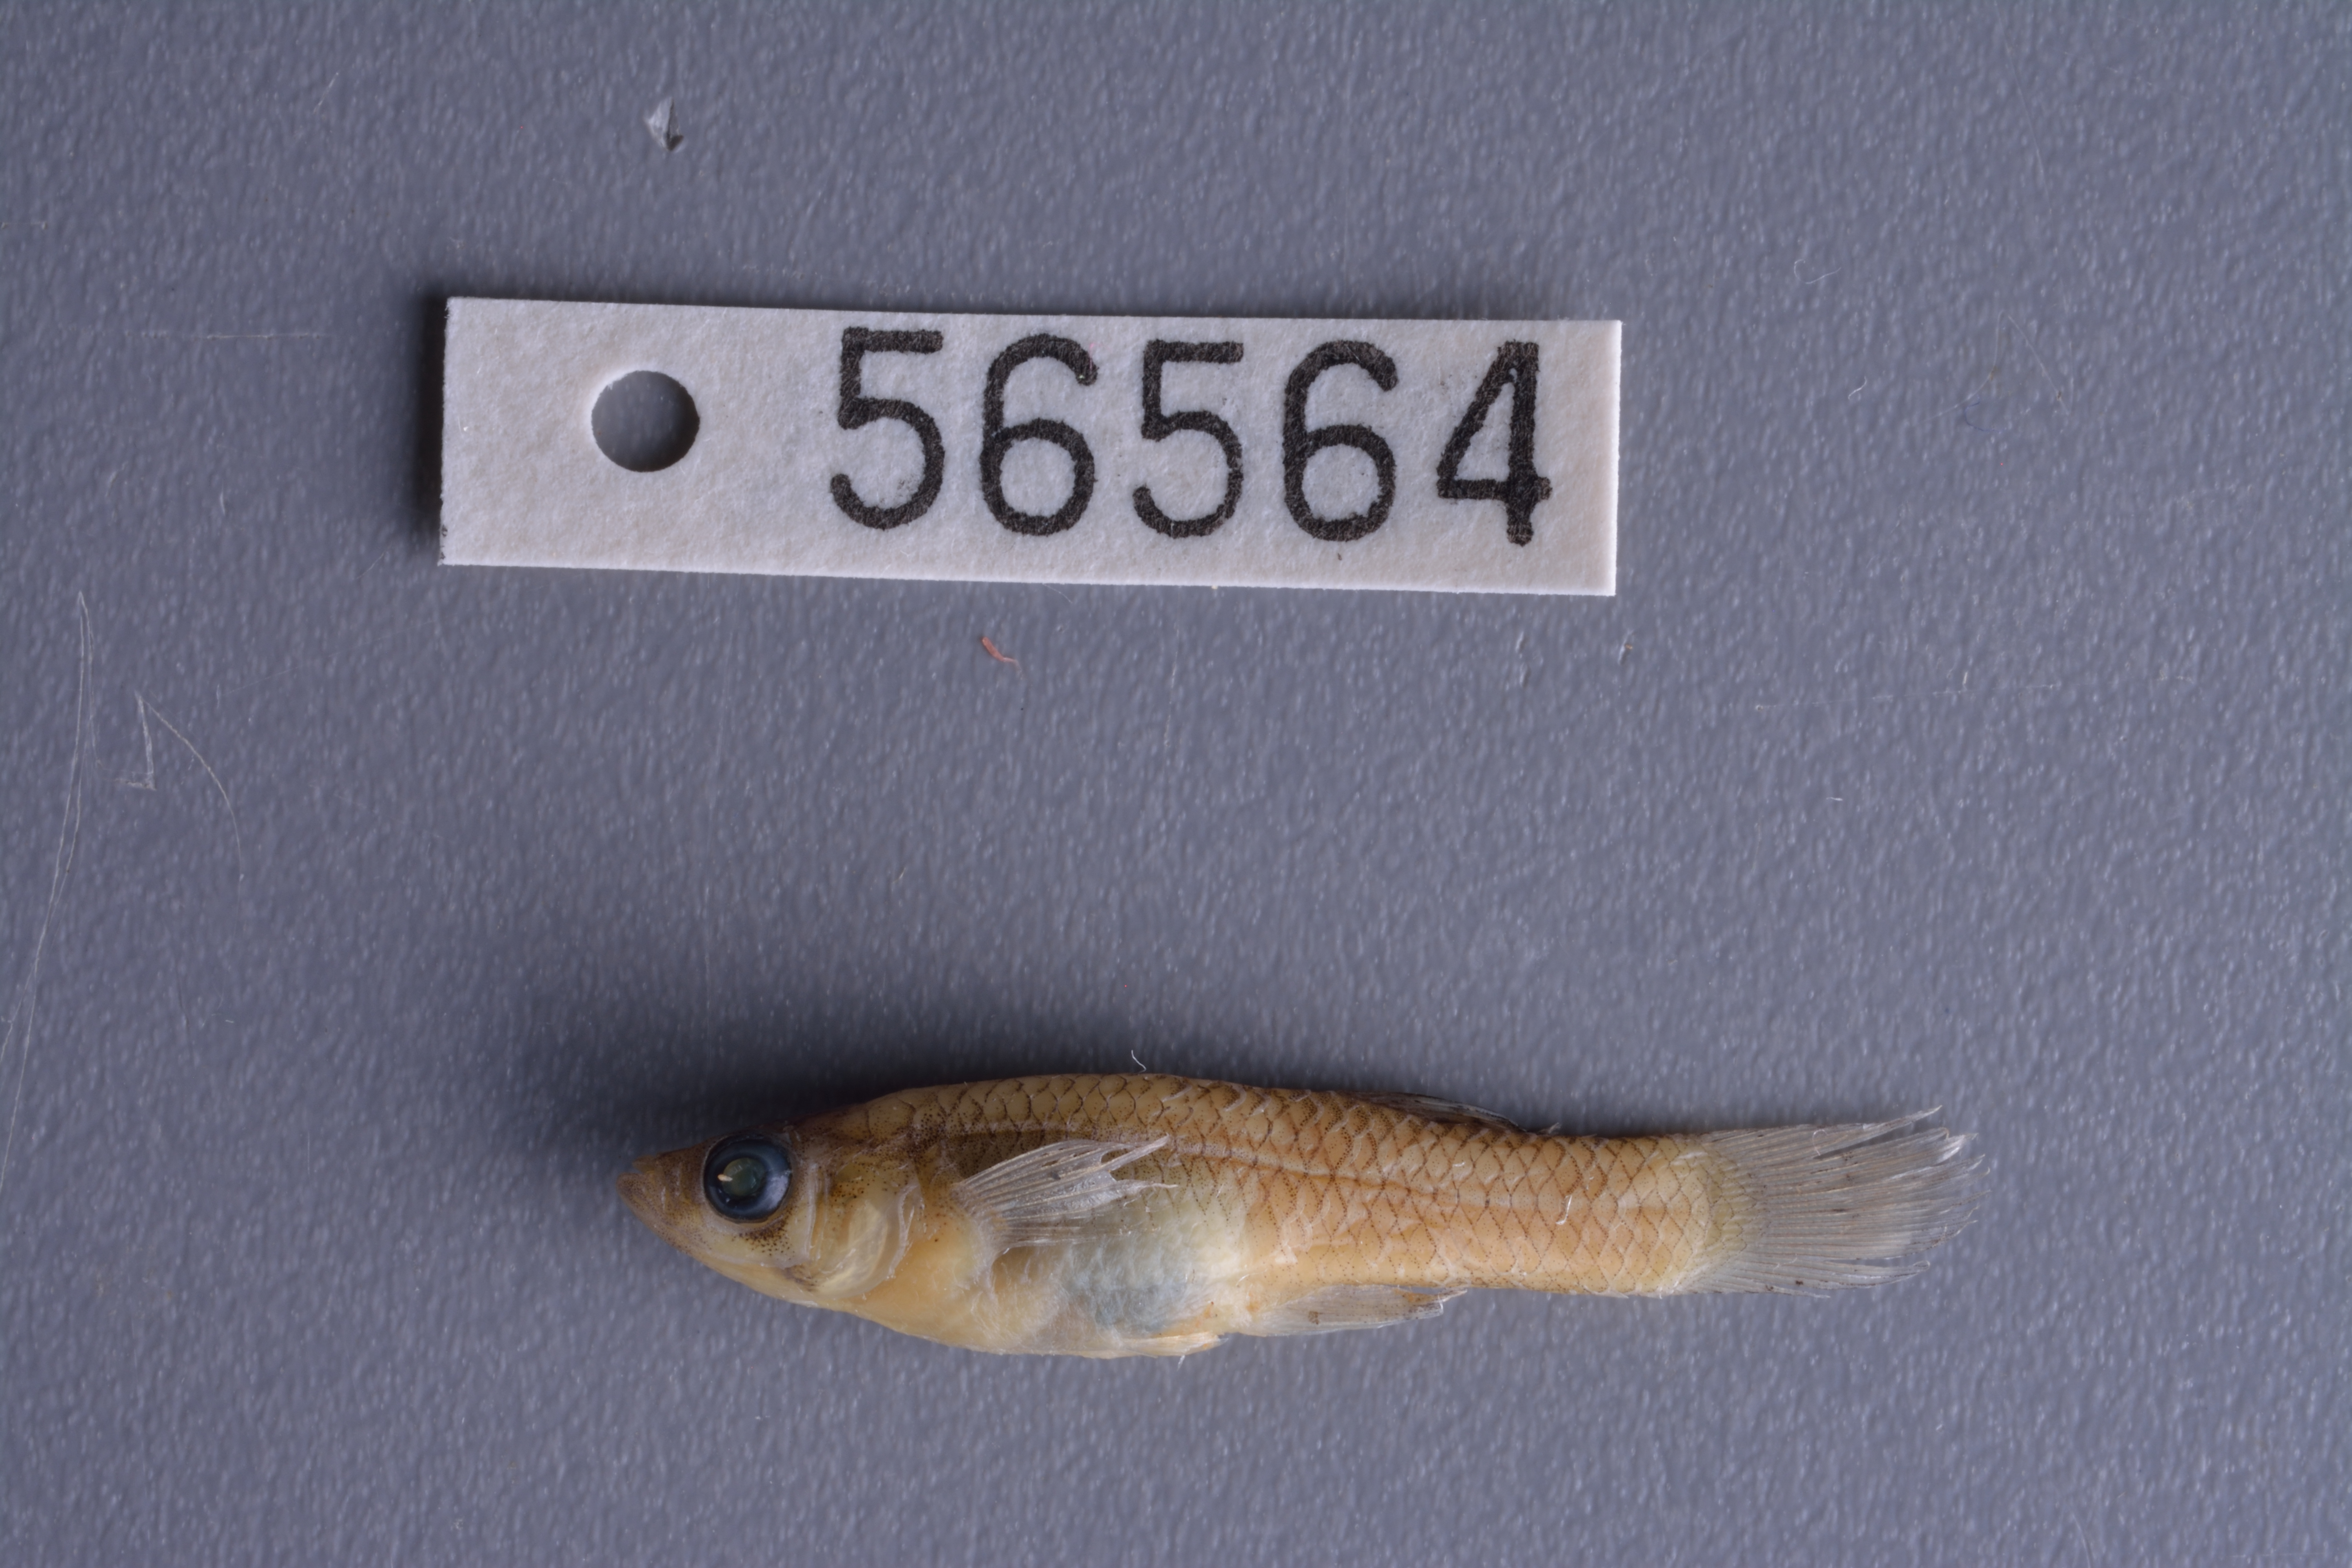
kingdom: Animalia
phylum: Chordata
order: Cyprinodontiformes
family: Poeciliidae
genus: Gambusia
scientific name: Gambusia affinis
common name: Mosquitofish
